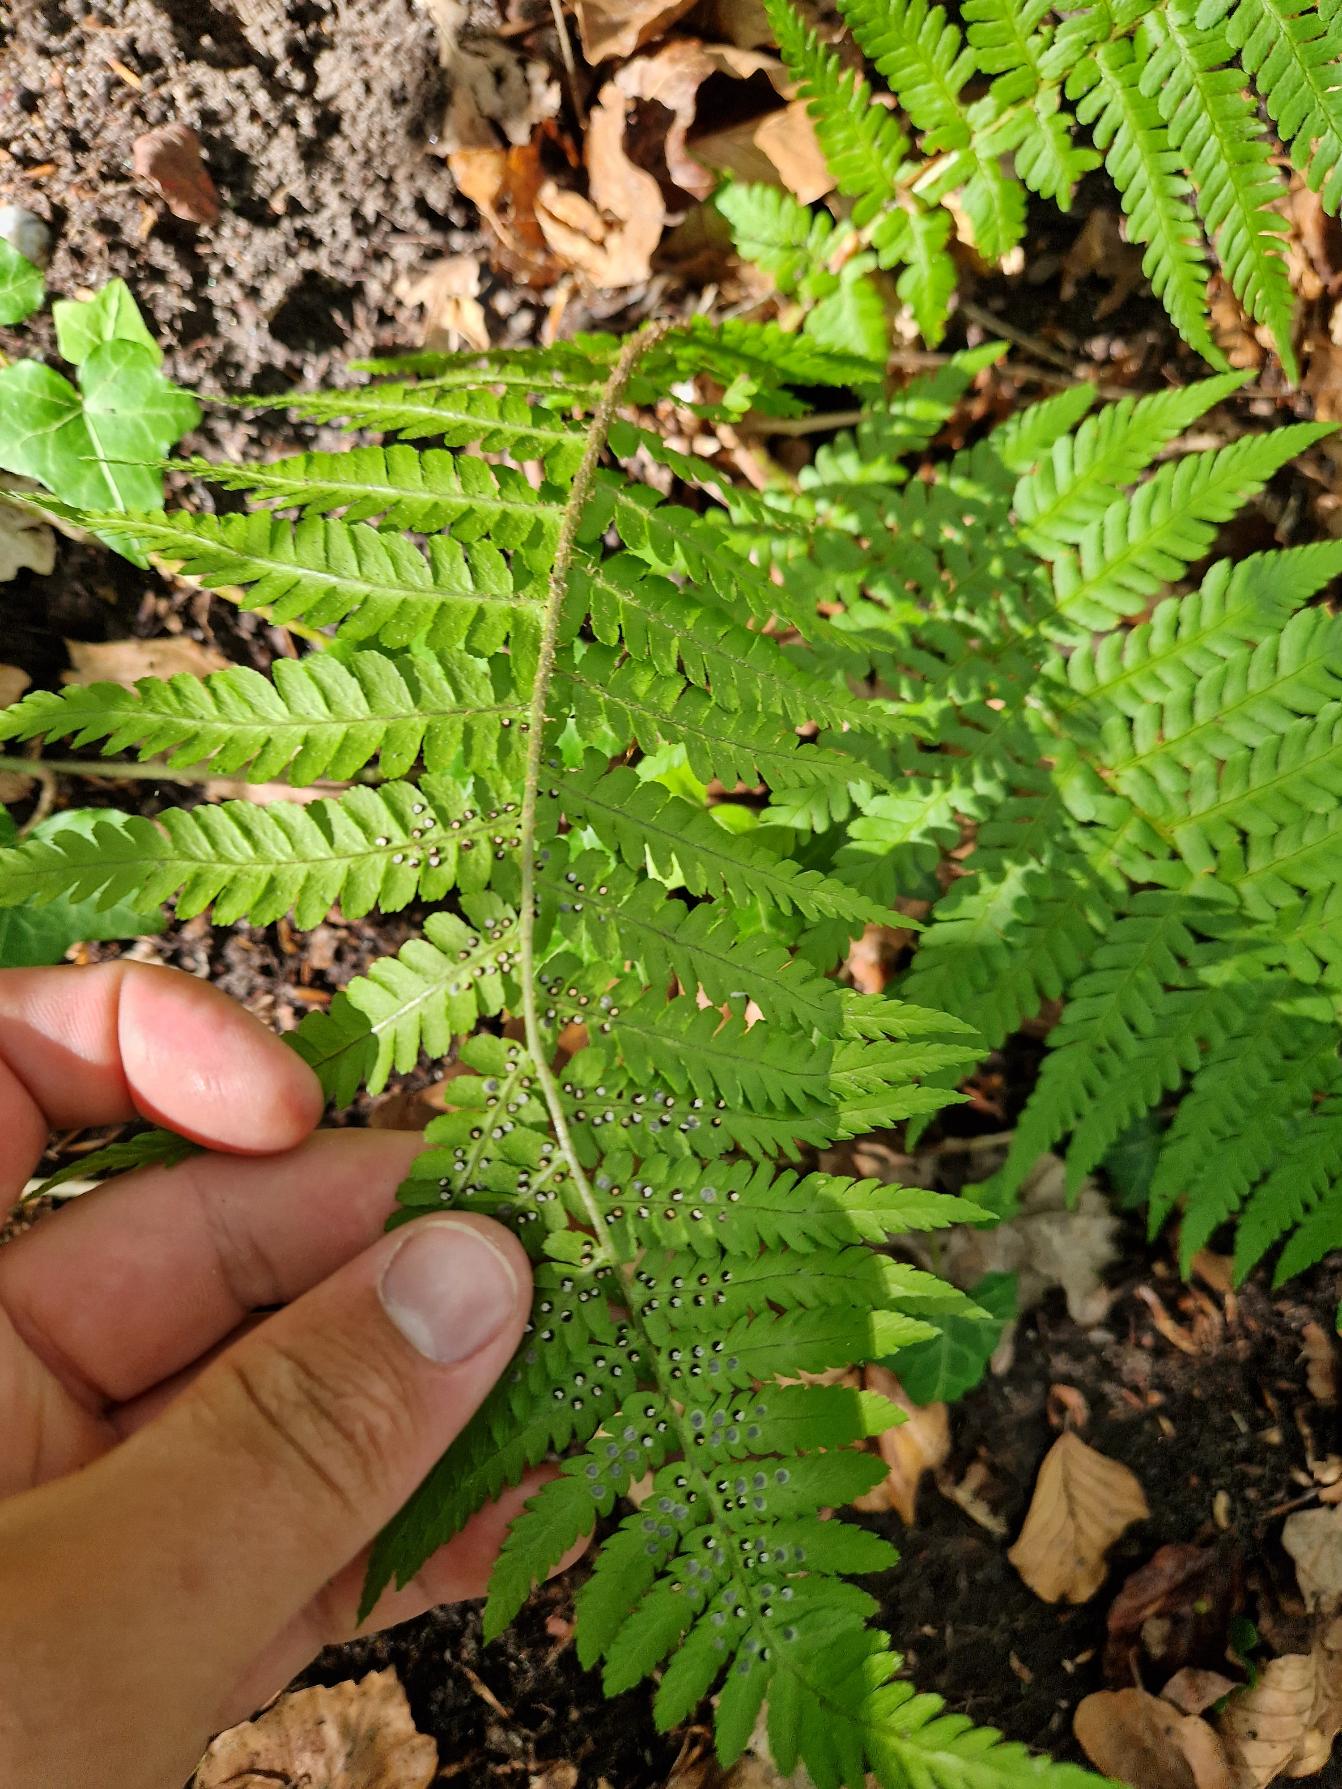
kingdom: Plantae
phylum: Tracheophyta
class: Polypodiopsida
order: Polypodiales
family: Dryopteridaceae
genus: Dryopteris
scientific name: Dryopteris filix-mas
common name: Almindelig mangeløv
